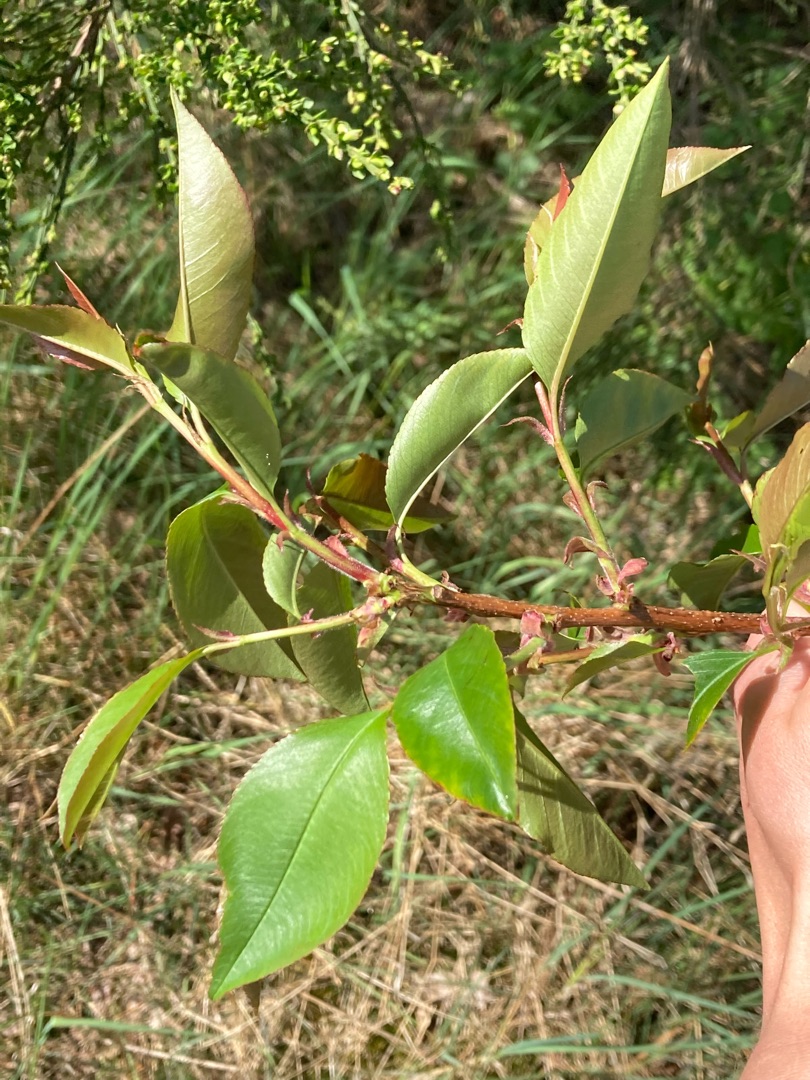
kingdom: Plantae
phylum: Tracheophyta
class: Magnoliopsida
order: Rosales
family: Rosaceae
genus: Prunus
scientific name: Prunus serotina
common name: Glansbladet hæg
